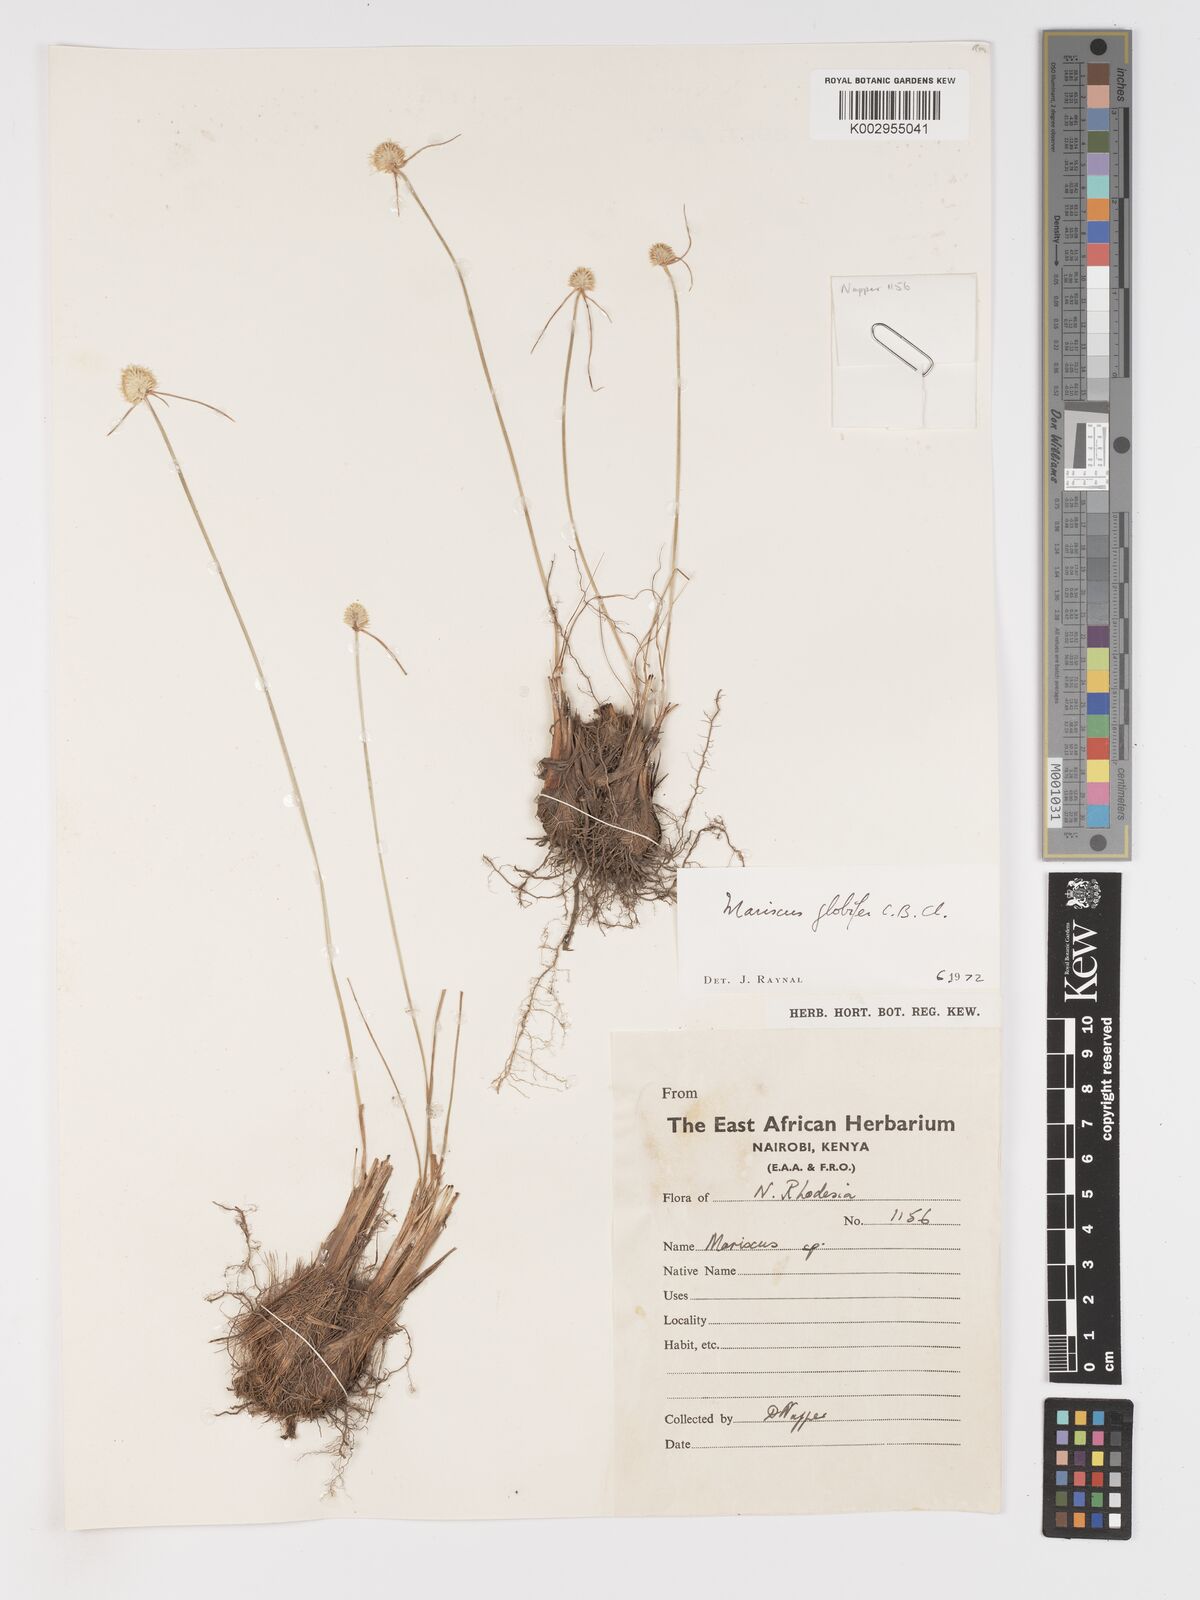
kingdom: Plantae
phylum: Tracheophyta
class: Liliopsida
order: Poales
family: Cyperaceae
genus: Cyperus
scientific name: Cyperus mollipes
